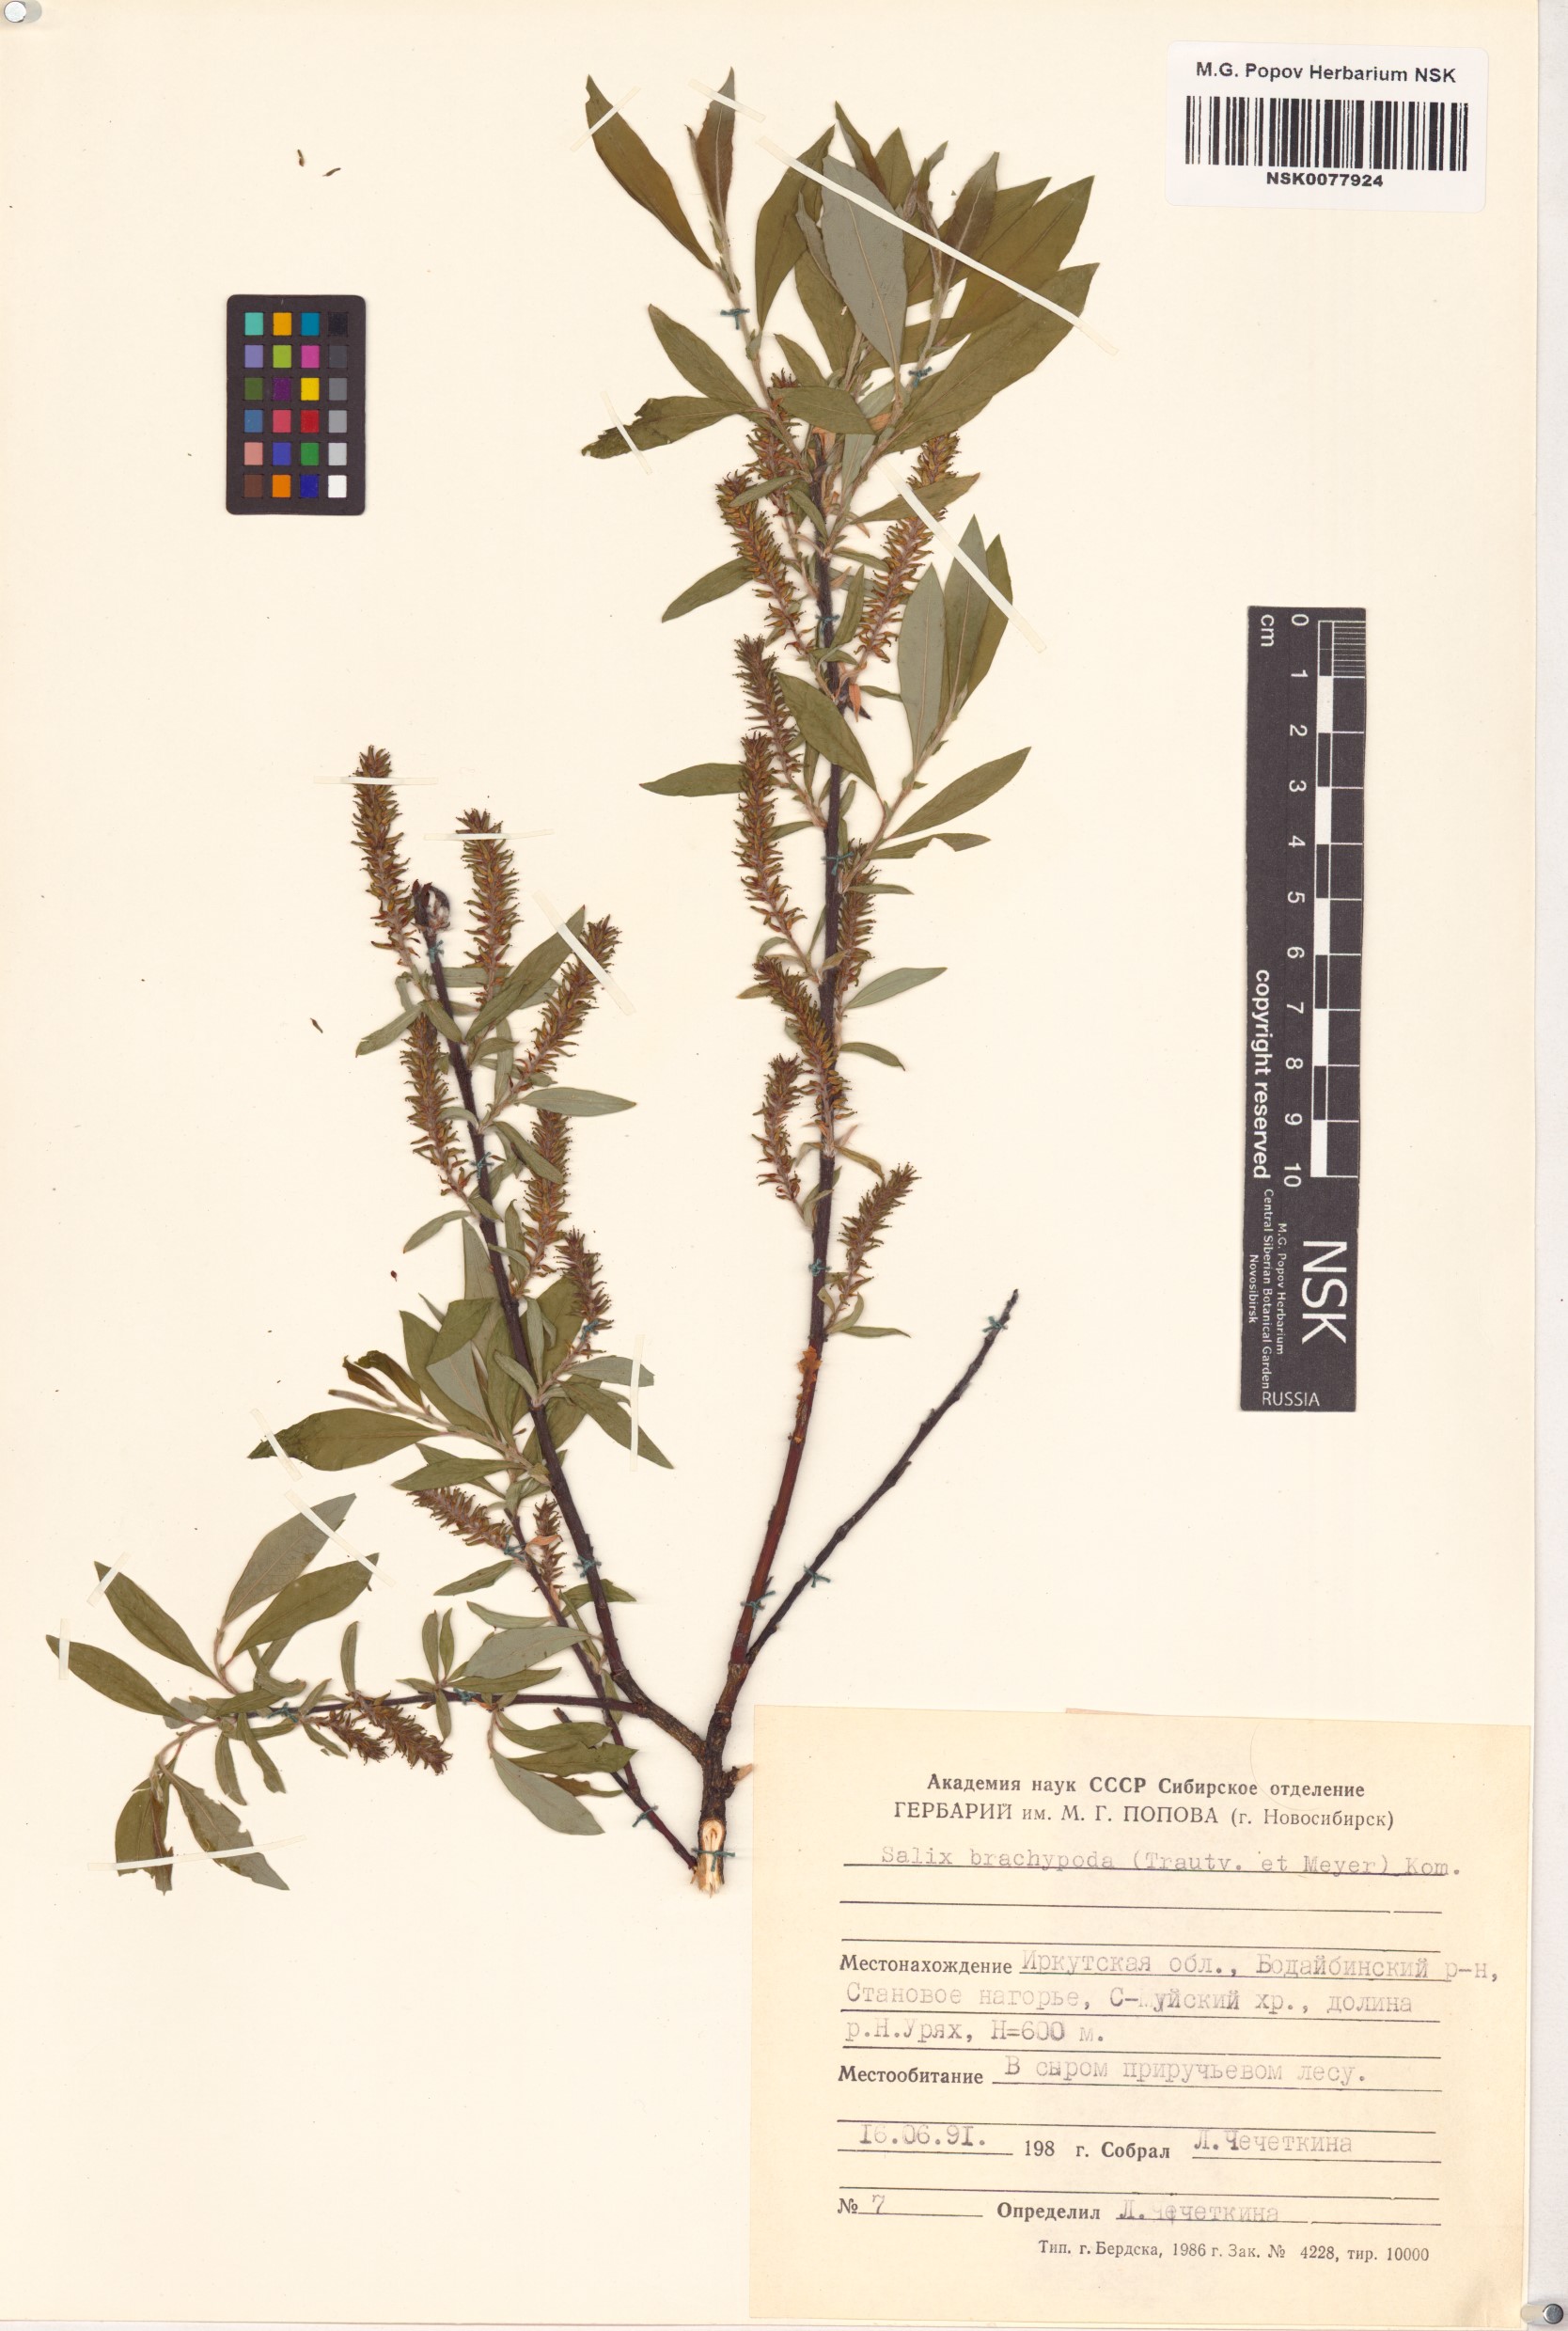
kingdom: Plantae
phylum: Tracheophyta
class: Magnoliopsida
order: Malpighiales
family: Salicaceae
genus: Salix
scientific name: Salix brachypoda
